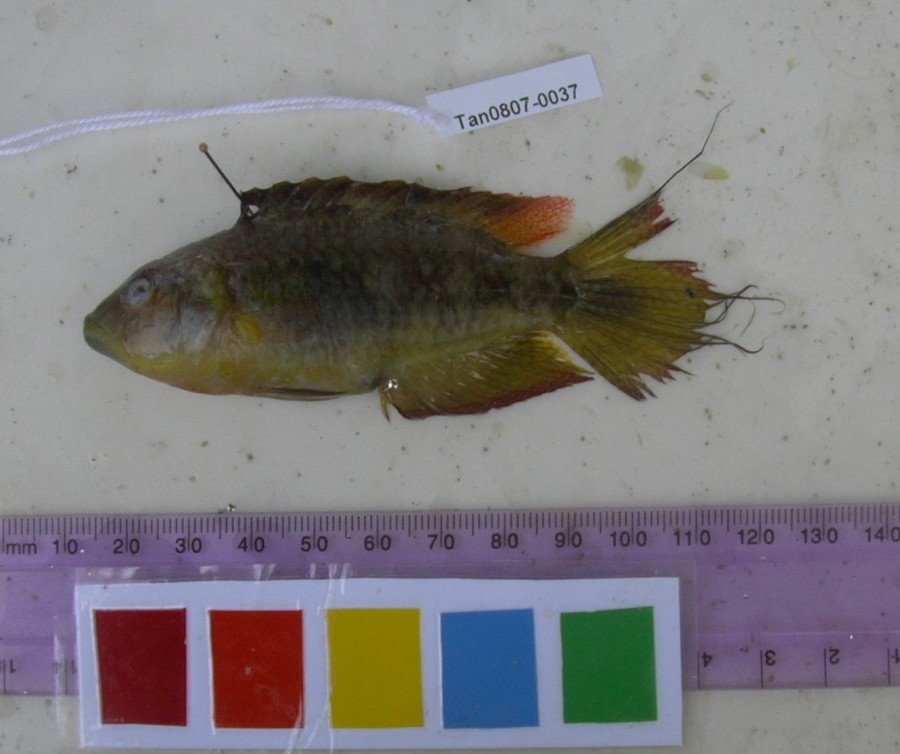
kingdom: Animalia
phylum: Chordata
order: Perciformes
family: Labridae
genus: Oxycheilinus
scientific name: Oxycheilinus bimaculatus
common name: Comettailed wrasse
